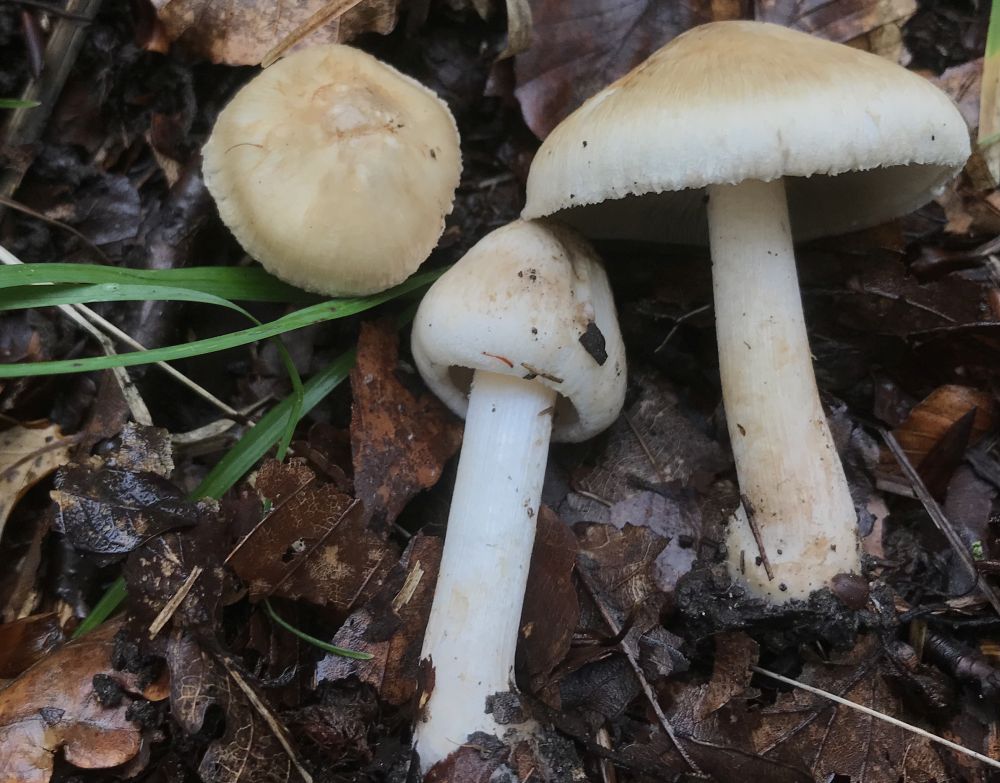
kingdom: Fungi
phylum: Basidiomycota
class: Agaricomycetes
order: Agaricales
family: Inocybaceae
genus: Inocybe
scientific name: Inocybe fraudans
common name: pæreduftende trævlhat
